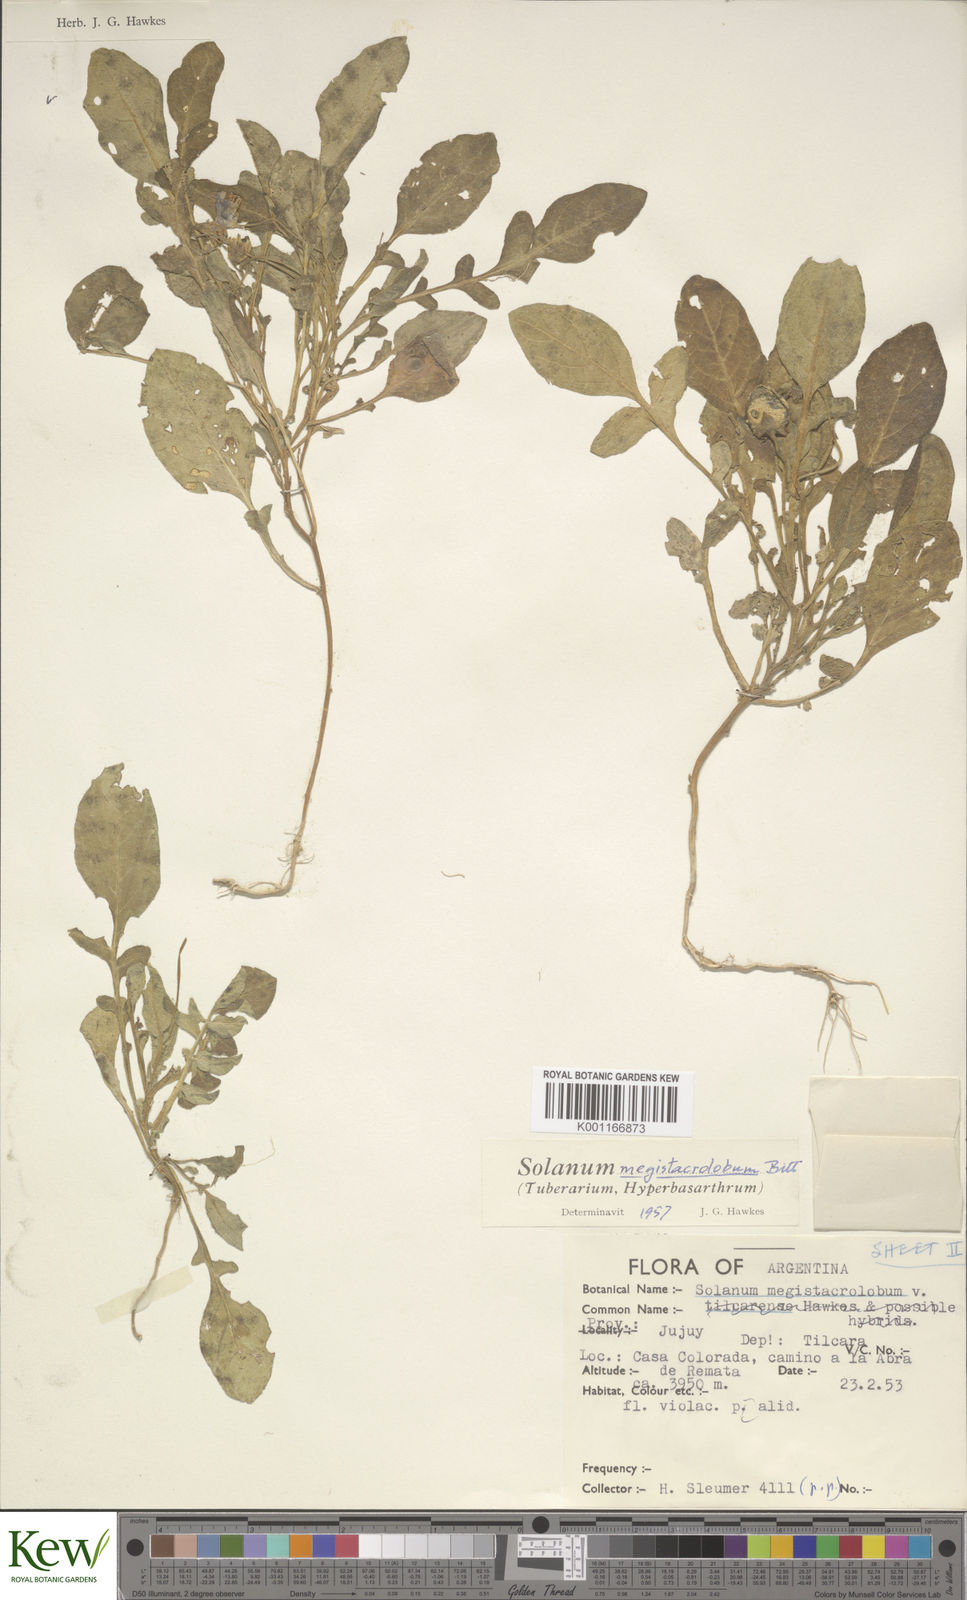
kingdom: Plantae
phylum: Tracheophyta
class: Magnoliopsida
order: Solanales
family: Solanaceae
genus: Solanum
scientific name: Solanum boliviense
